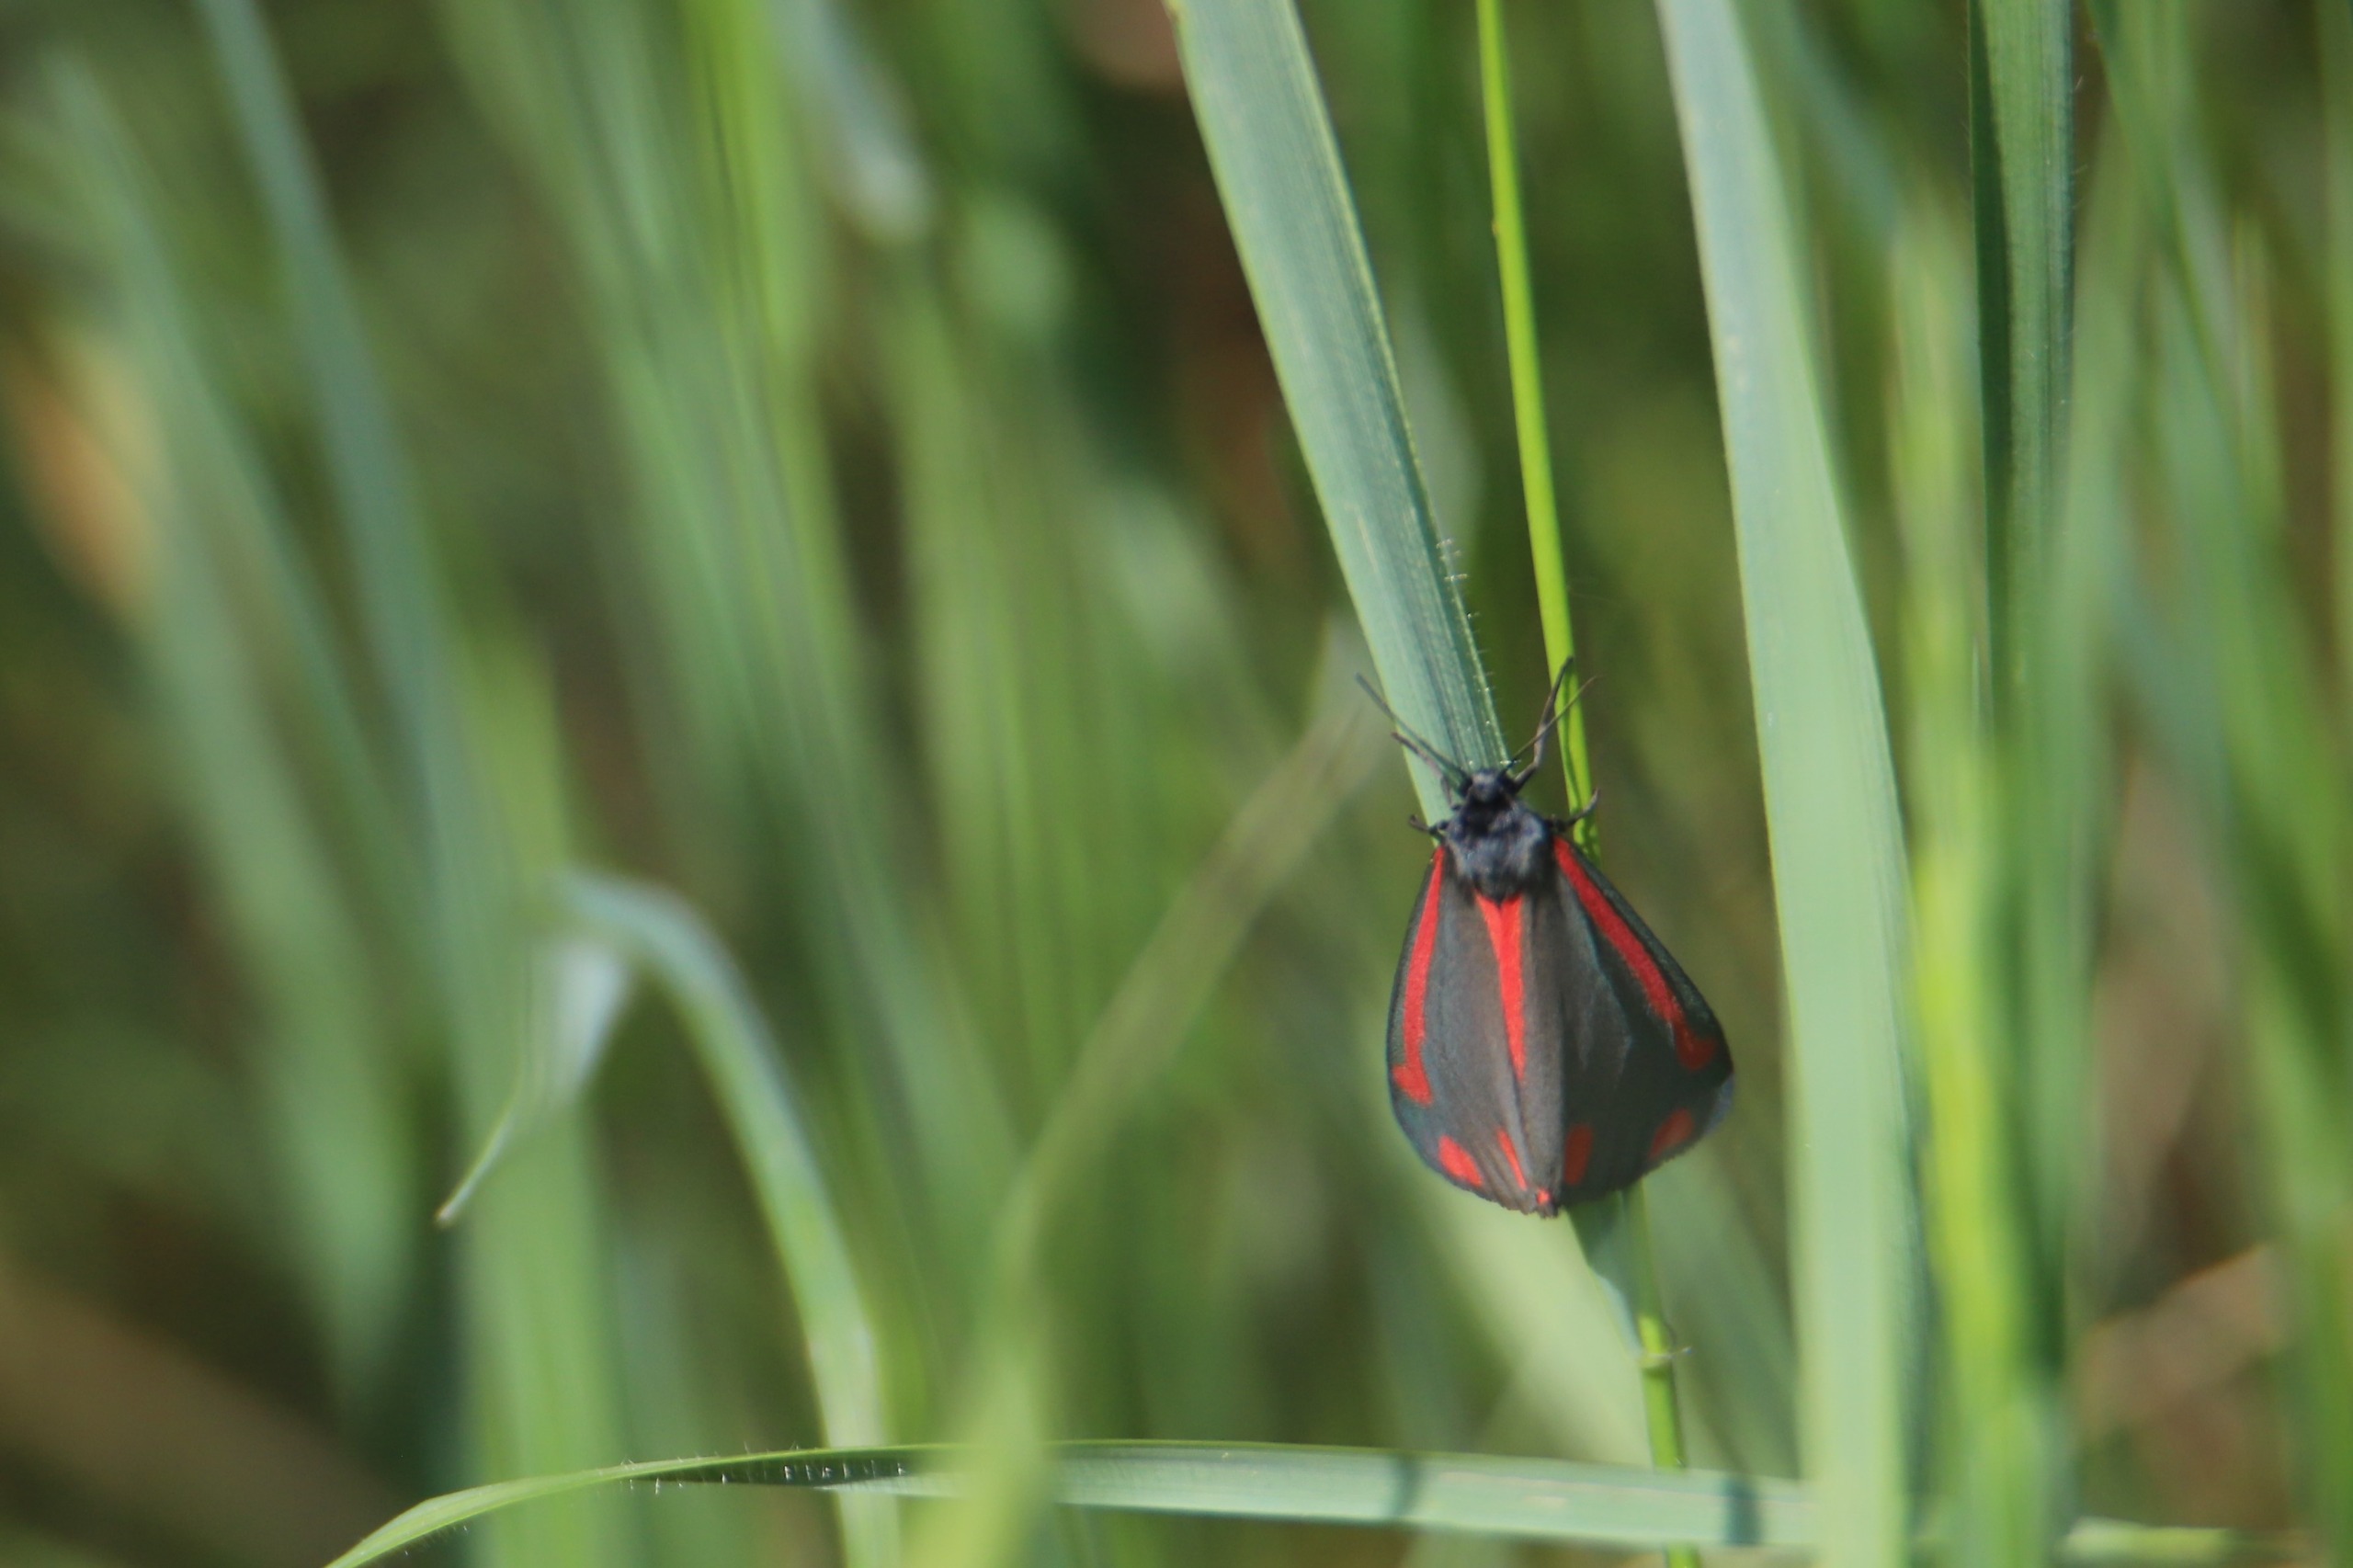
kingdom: Animalia
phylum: Arthropoda
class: Insecta
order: Lepidoptera
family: Erebidae
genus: Tyria
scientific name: Tyria jacobaeae
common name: Blodplet
